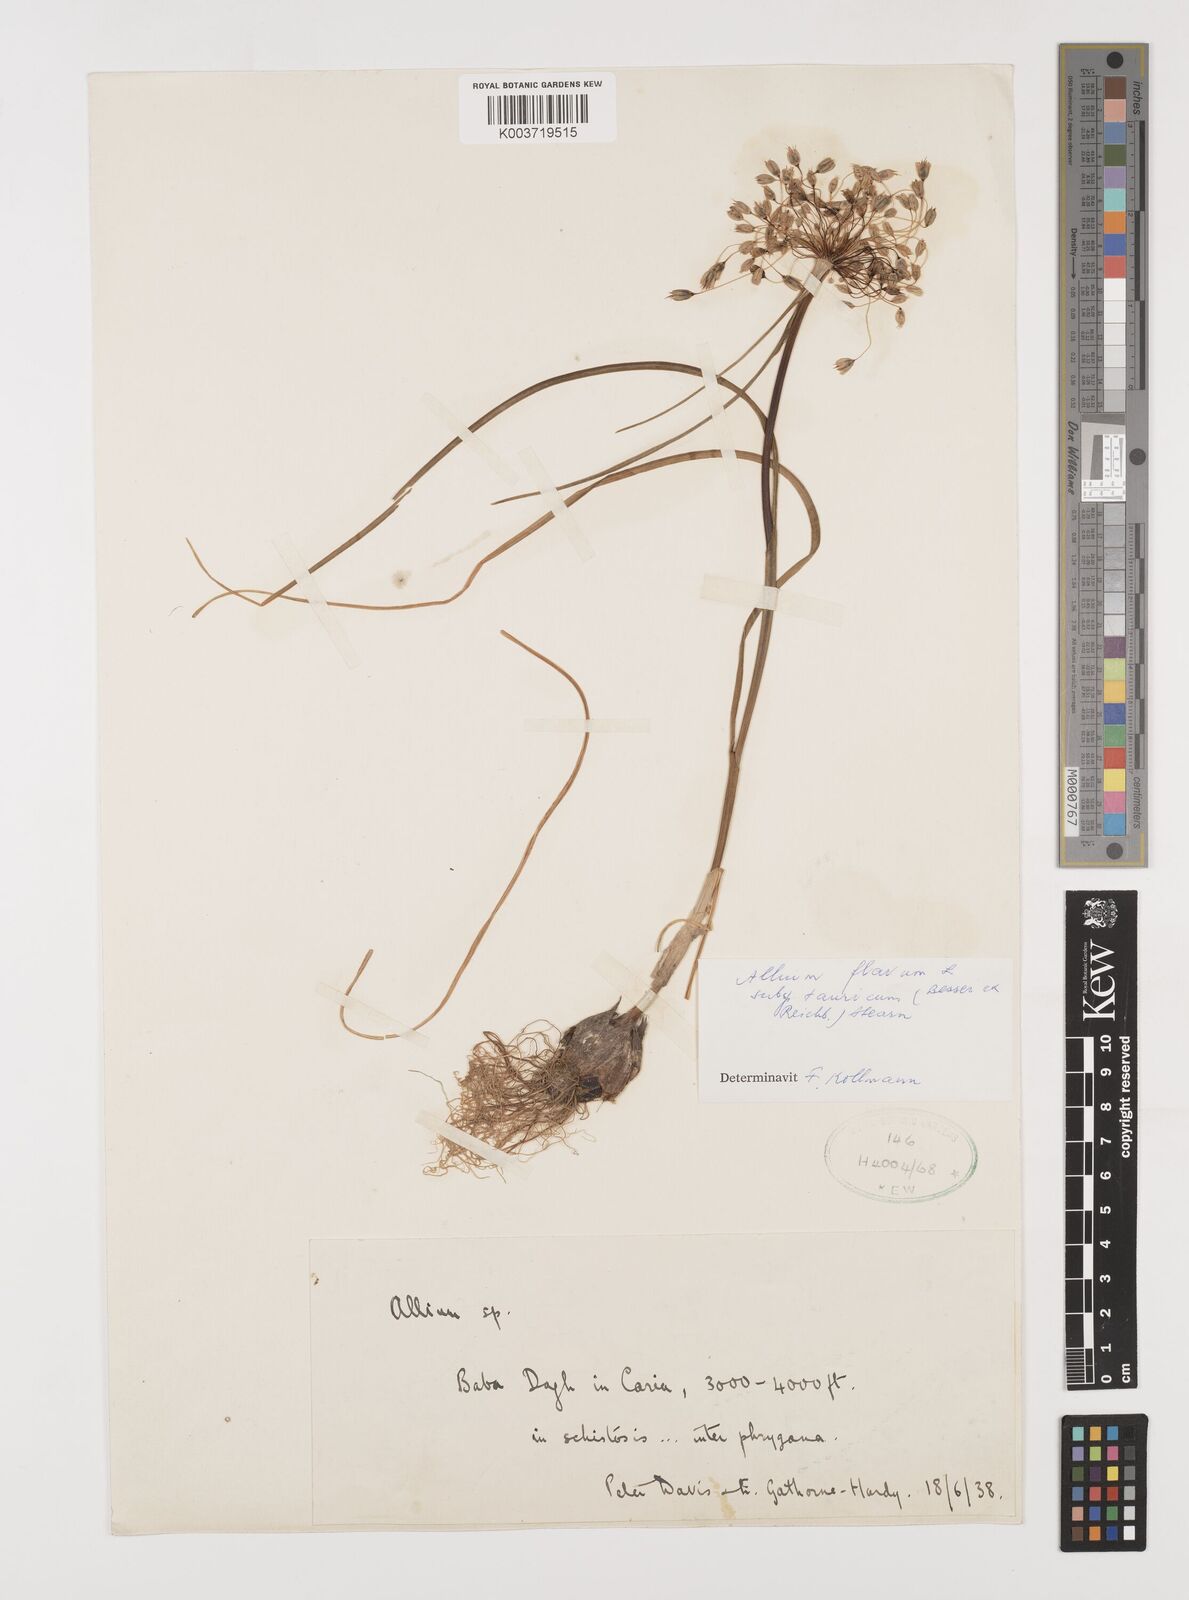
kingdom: Plantae
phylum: Tracheophyta
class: Liliopsida
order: Asparagales
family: Amaryllidaceae
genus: Allium
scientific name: Allium flavum
